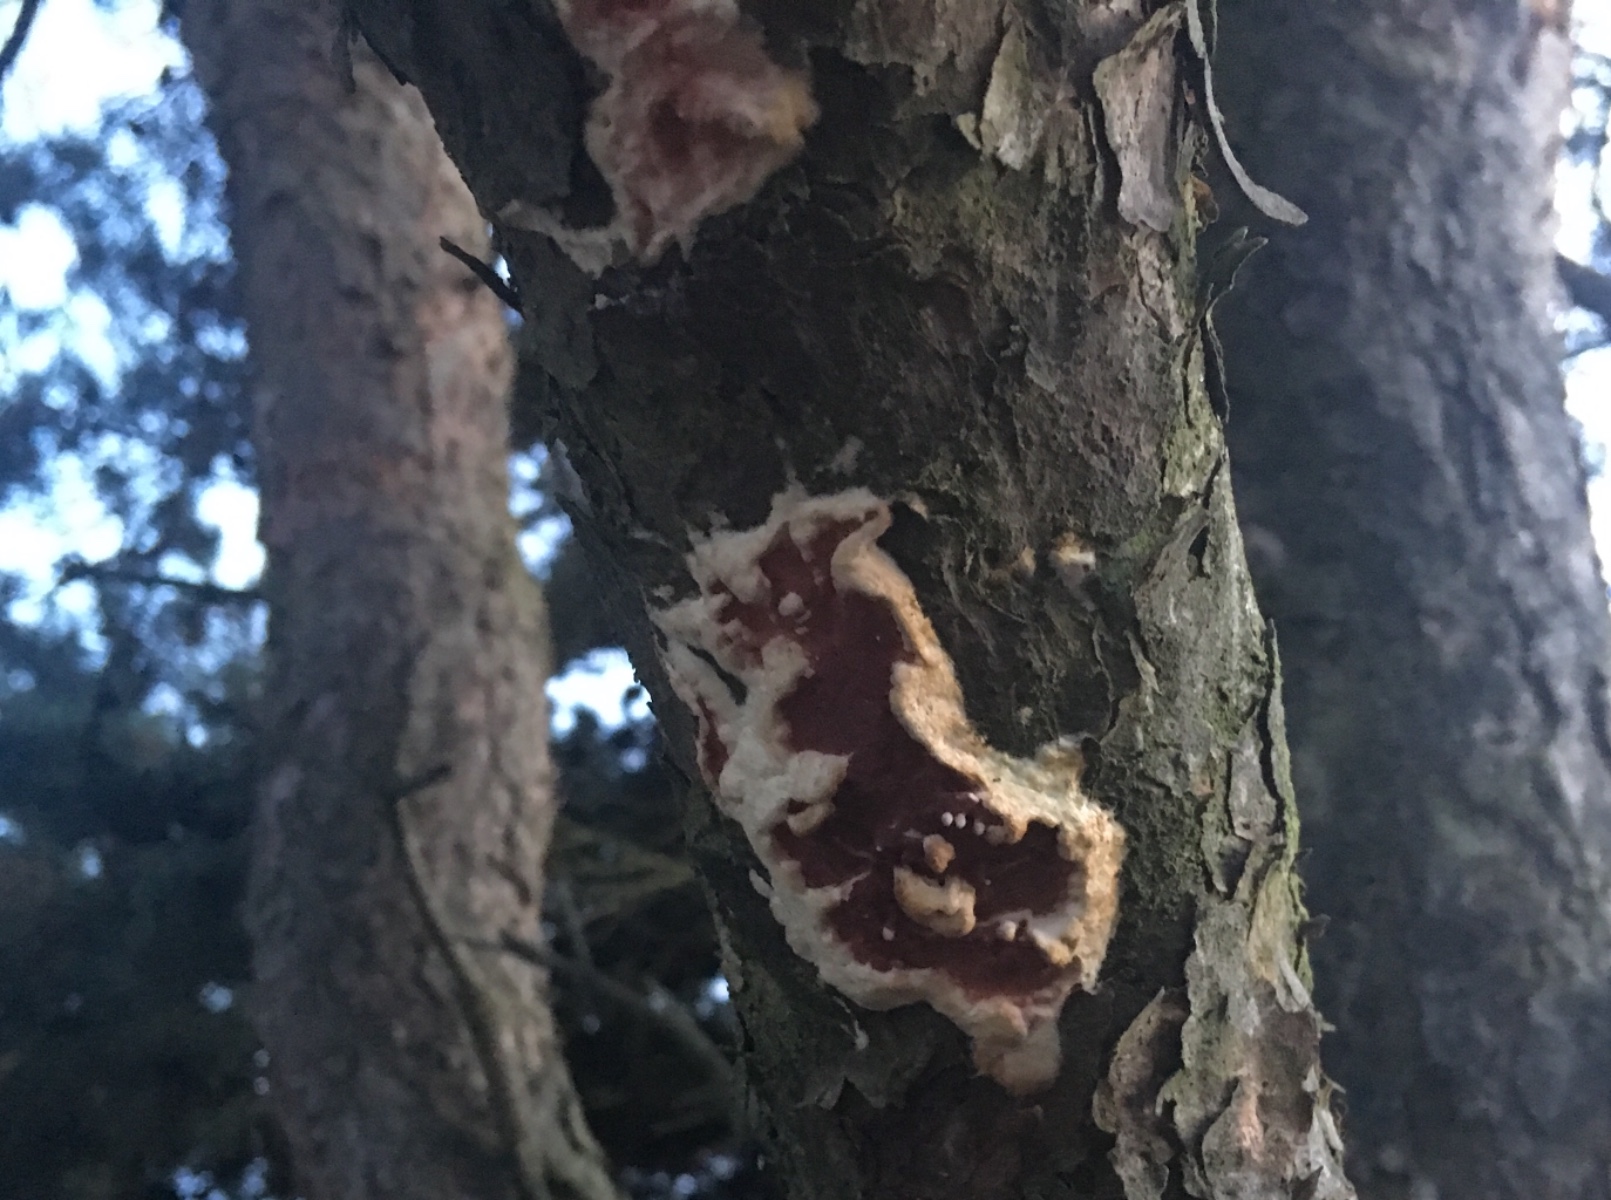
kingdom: Fungi
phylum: Basidiomycota
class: Agaricomycetes
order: Polyporales
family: Irpicaceae
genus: Meruliopsis
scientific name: Meruliopsis taxicola
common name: purpurbrun foldporesvamp
